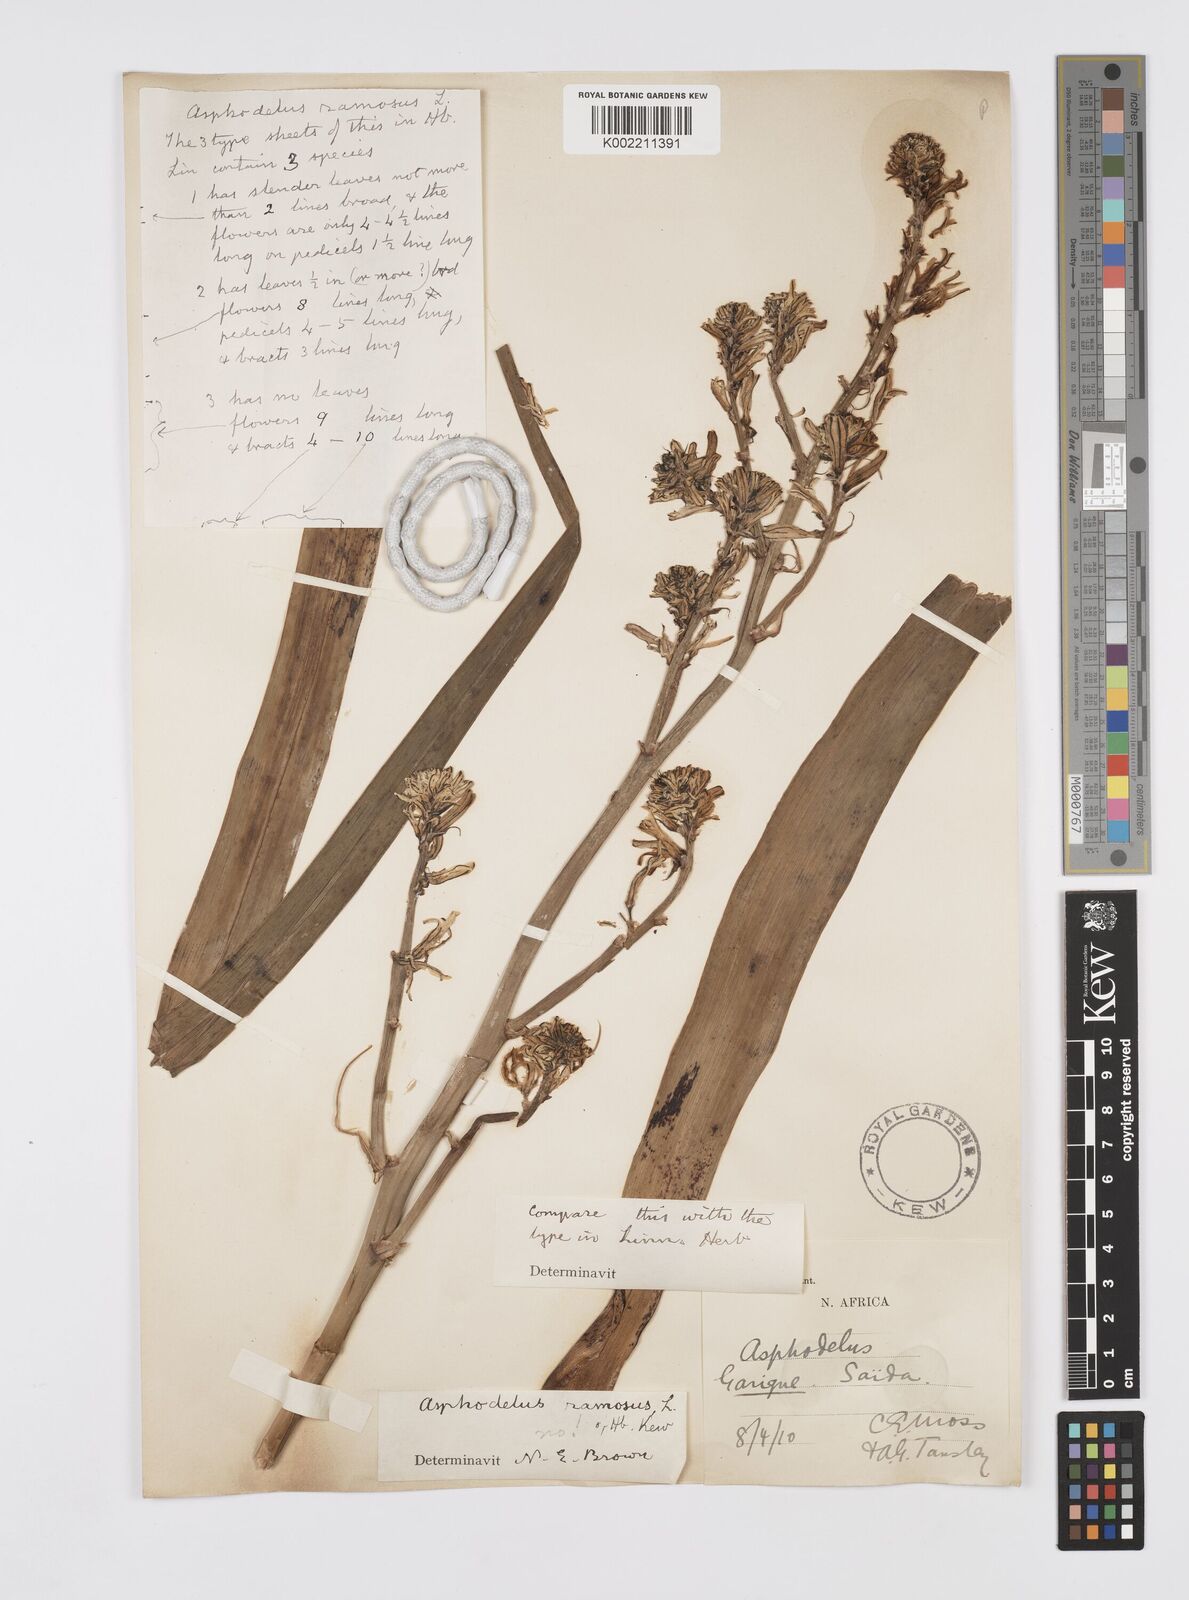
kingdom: Plantae
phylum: Tracheophyta
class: Liliopsida
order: Asparagales
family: Asphodelaceae
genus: Asphodelus
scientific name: Asphodelus ramosus
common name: Silverrod
